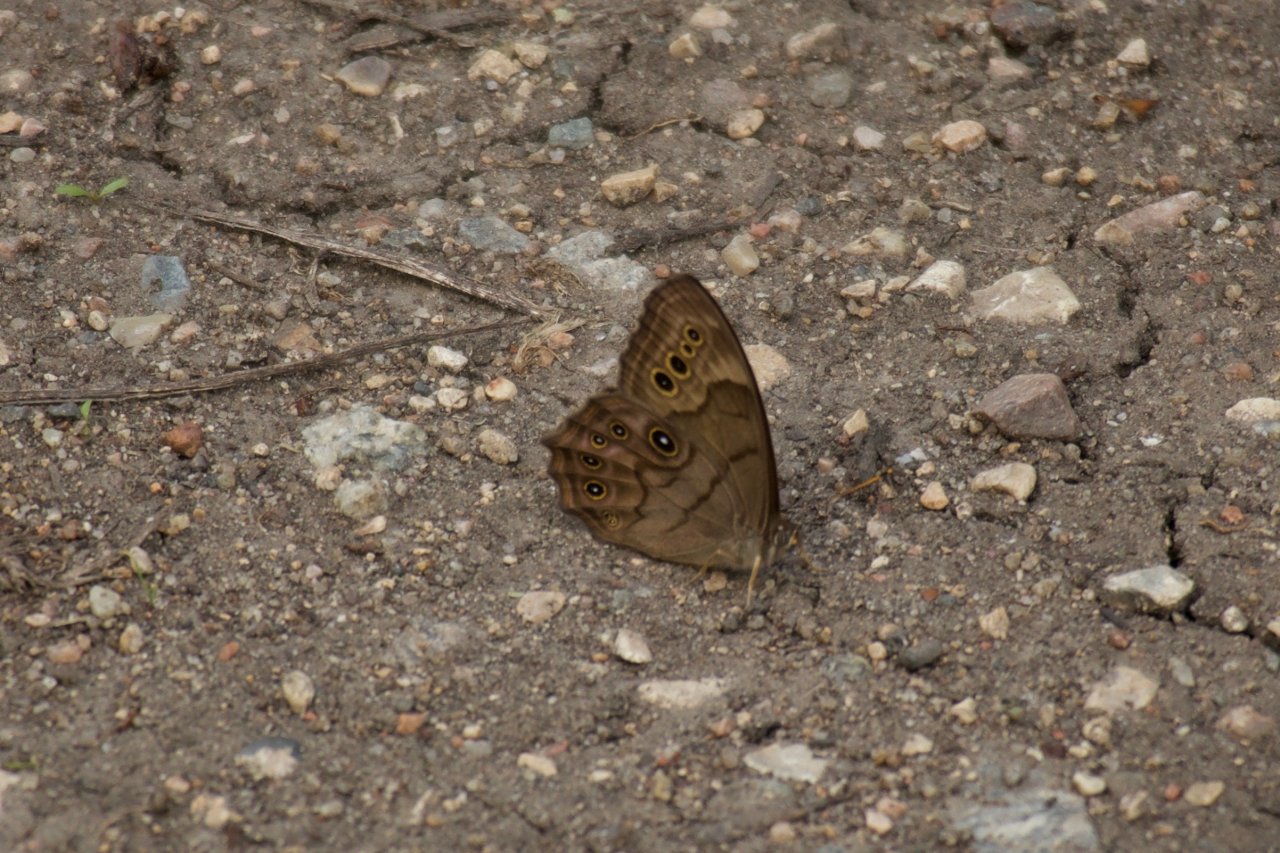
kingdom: Animalia
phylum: Arthropoda
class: Insecta
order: Lepidoptera
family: Nymphalidae
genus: Lethe
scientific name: Lethe anthedon
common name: Northern Pearly-Eye
